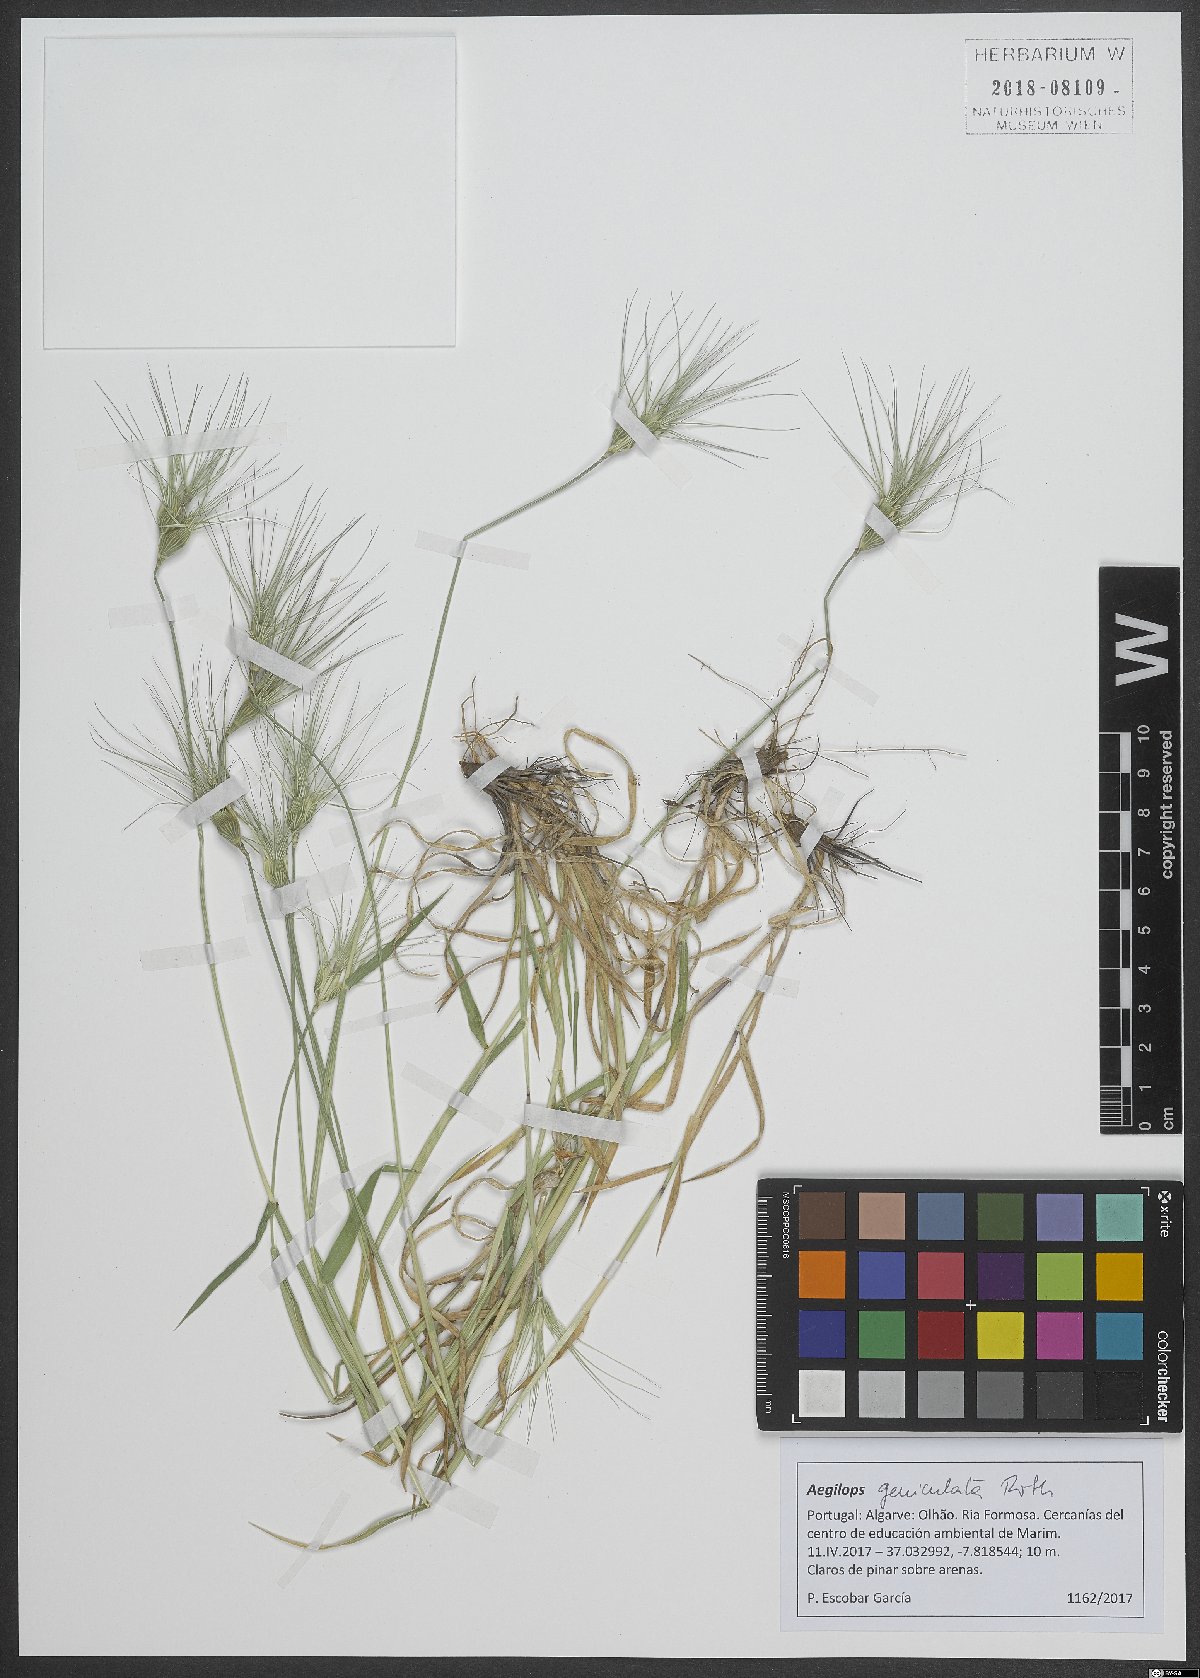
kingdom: Plantae
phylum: Tracheophyta
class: Liliopsida
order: Poales
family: Poaceae
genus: Aegilops
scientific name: Aegilops geniculata
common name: Ovate goat grass
